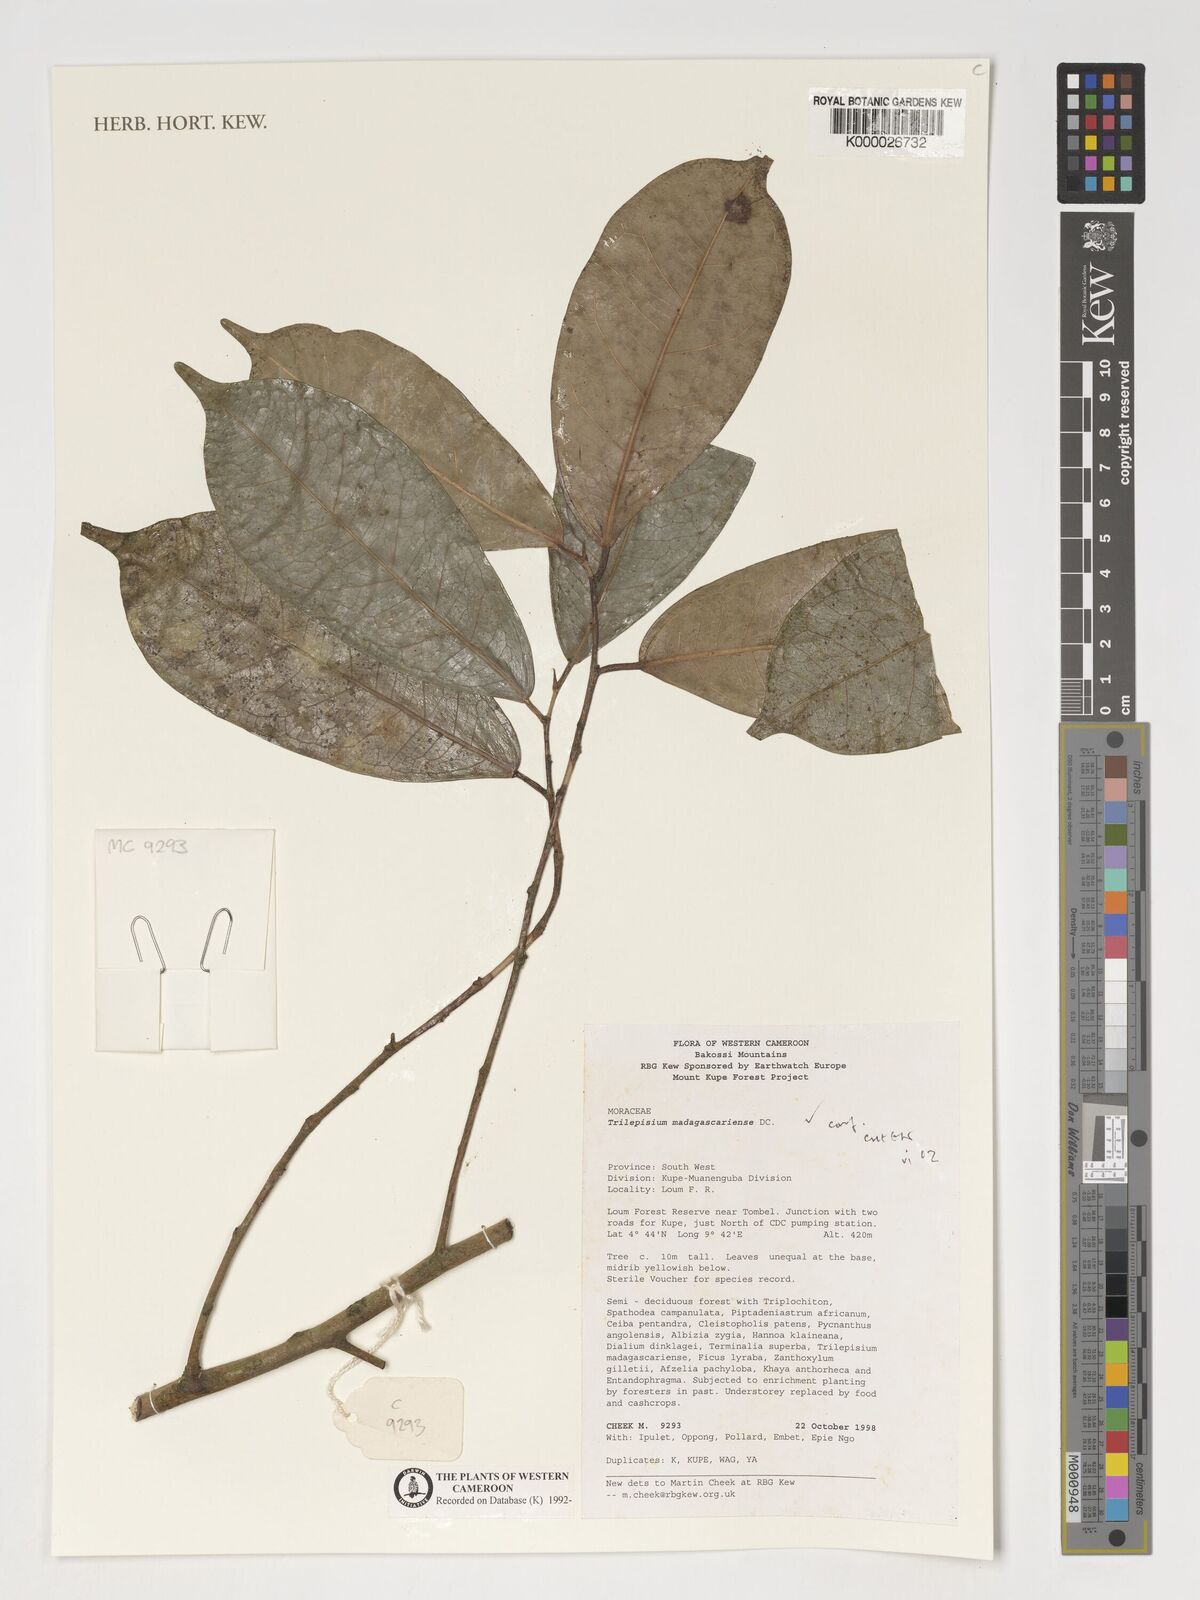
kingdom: Plantae
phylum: Tracheophyta
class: Magnoliopsida
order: Rosales
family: Moraceae
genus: Trilepisium
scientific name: Trilepisium madagascariense
